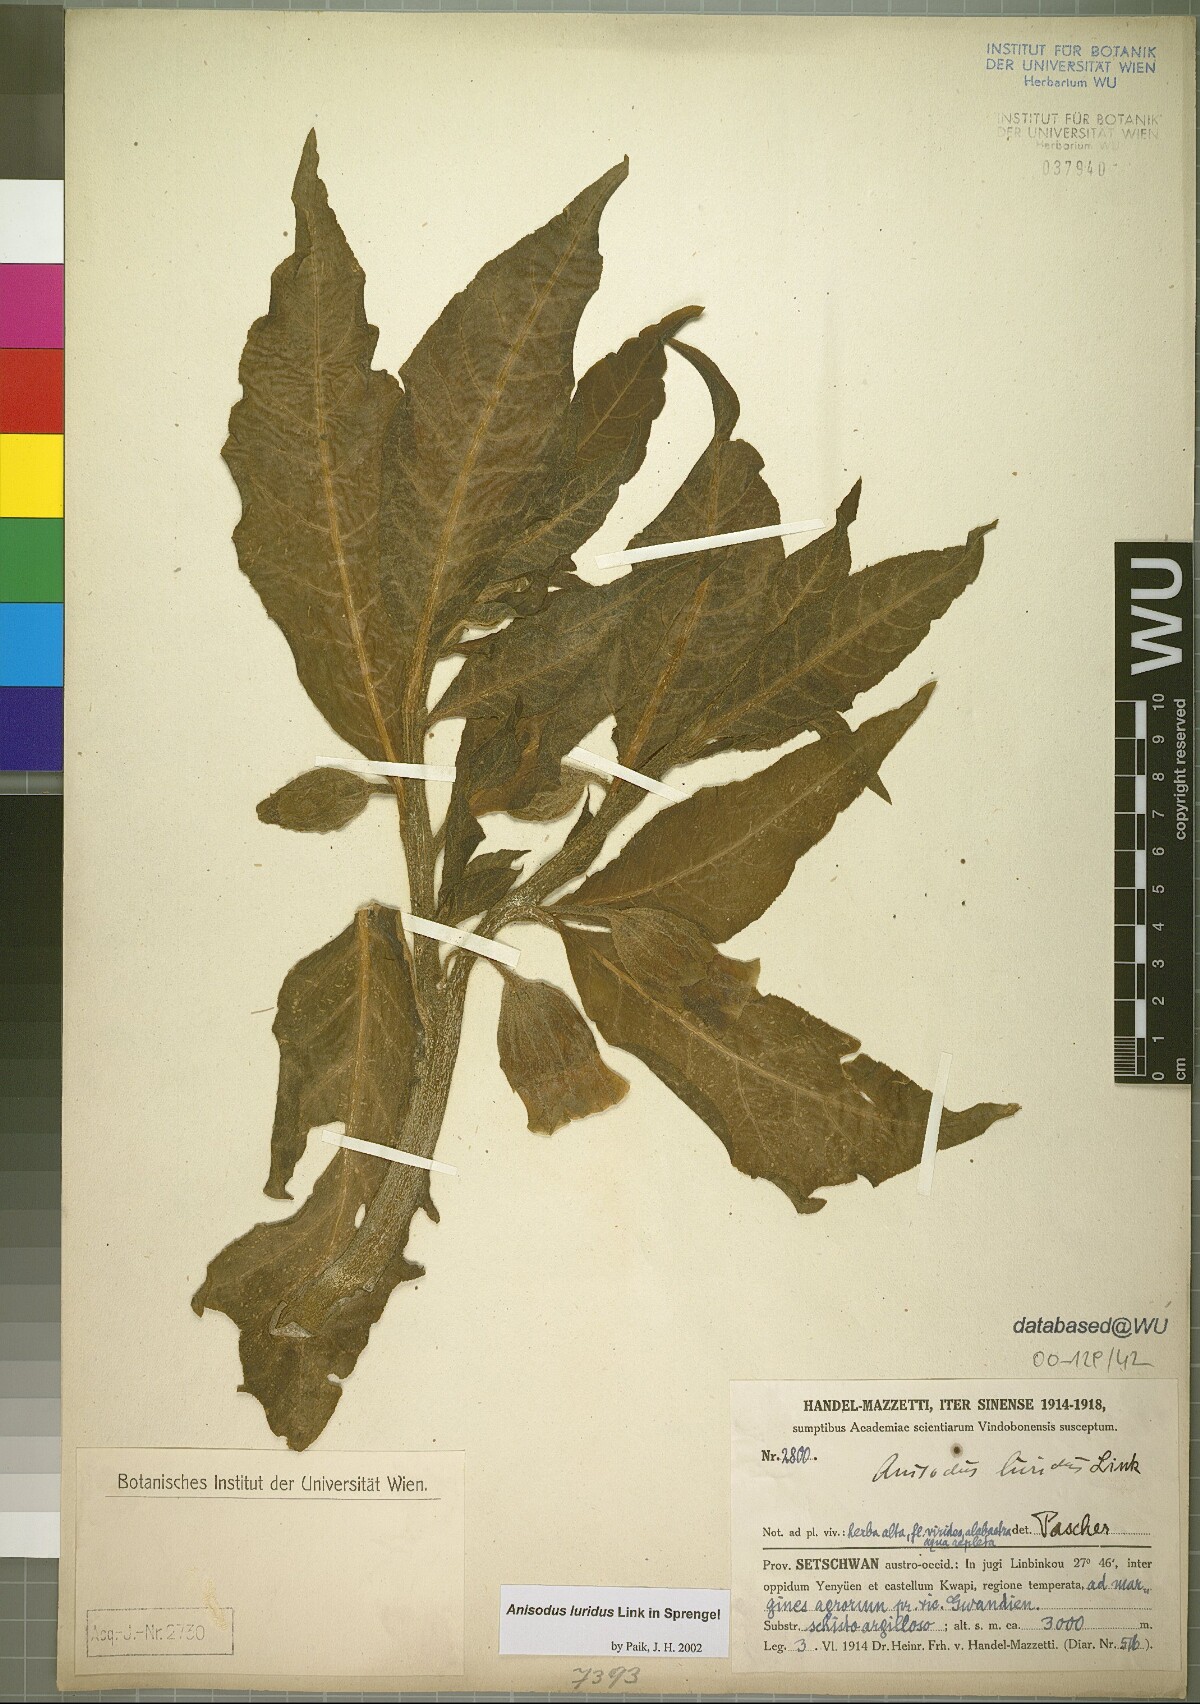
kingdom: Plantae
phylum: Tracheophyta
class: Magnoliopsida
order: Solanales
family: Solanaceae
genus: Anisodus
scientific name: Anisodus stramoniifolius
